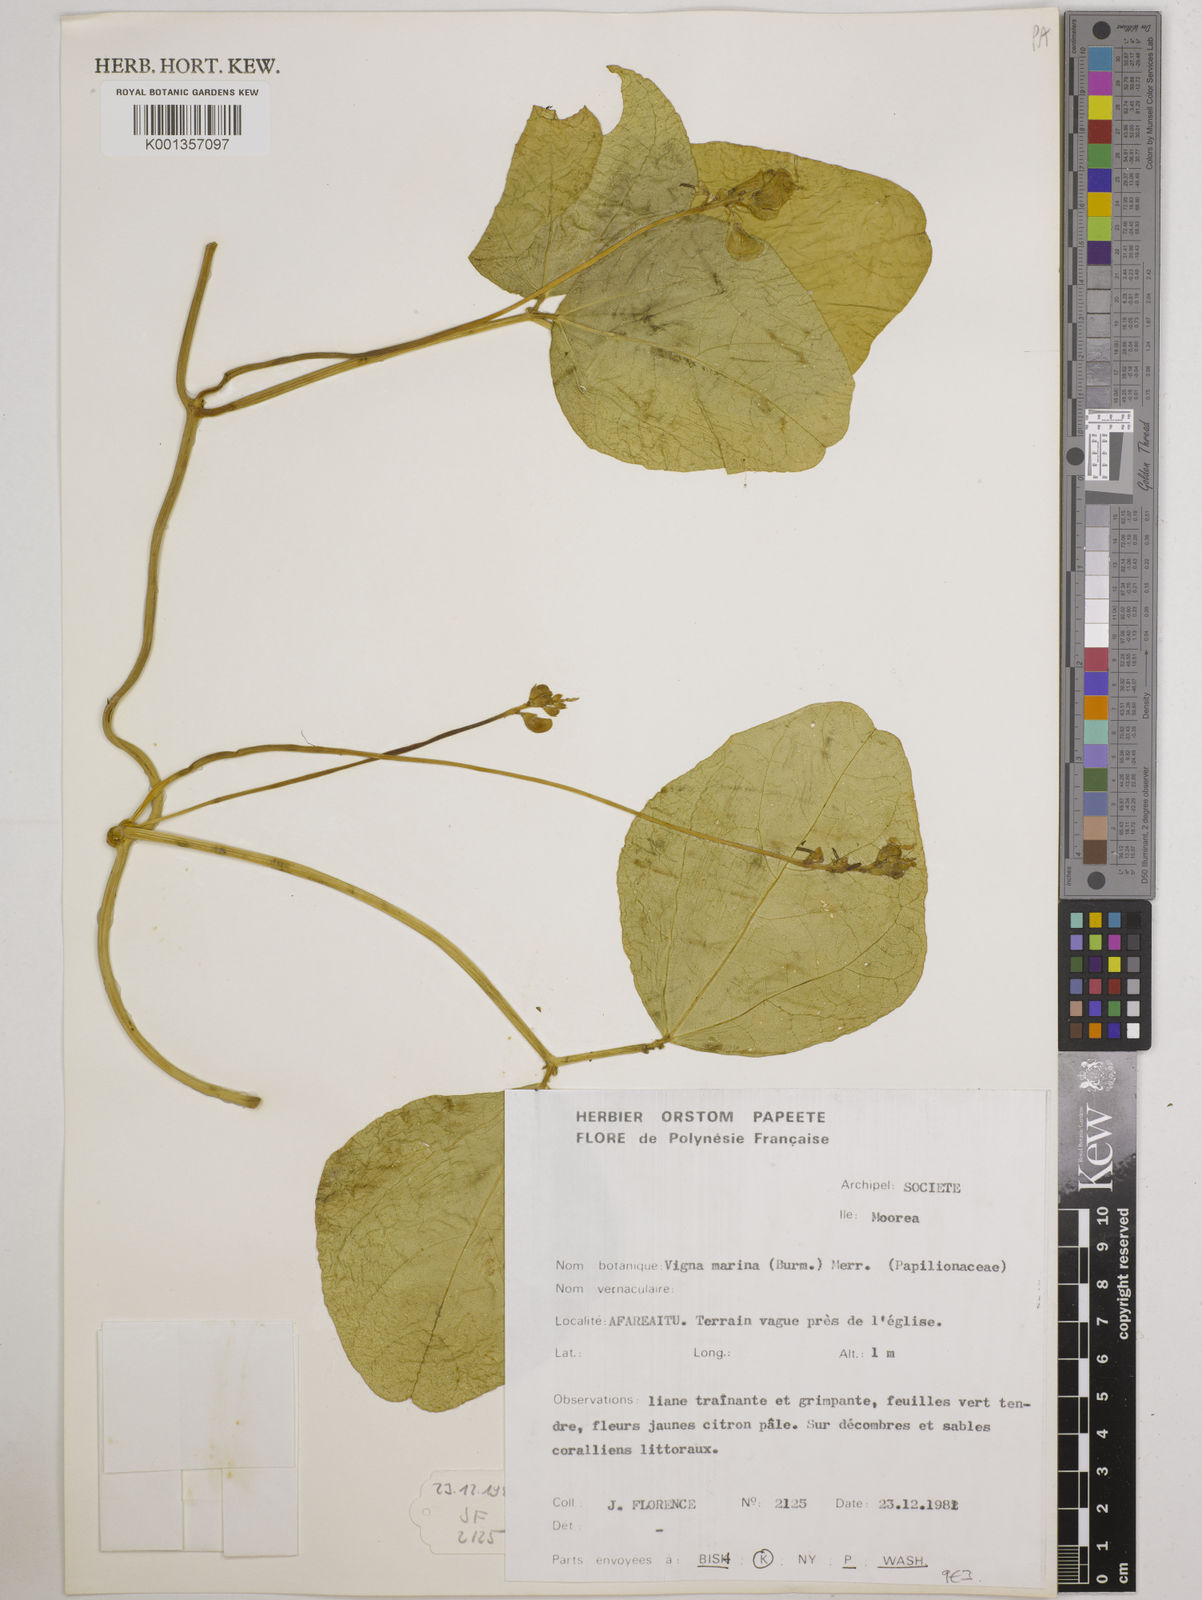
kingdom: Plantae
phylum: Tracheophyta
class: Magnoliopsida
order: Fabales
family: Fabaceae
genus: Vigna
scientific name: Vigna marina
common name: Dune-bean
